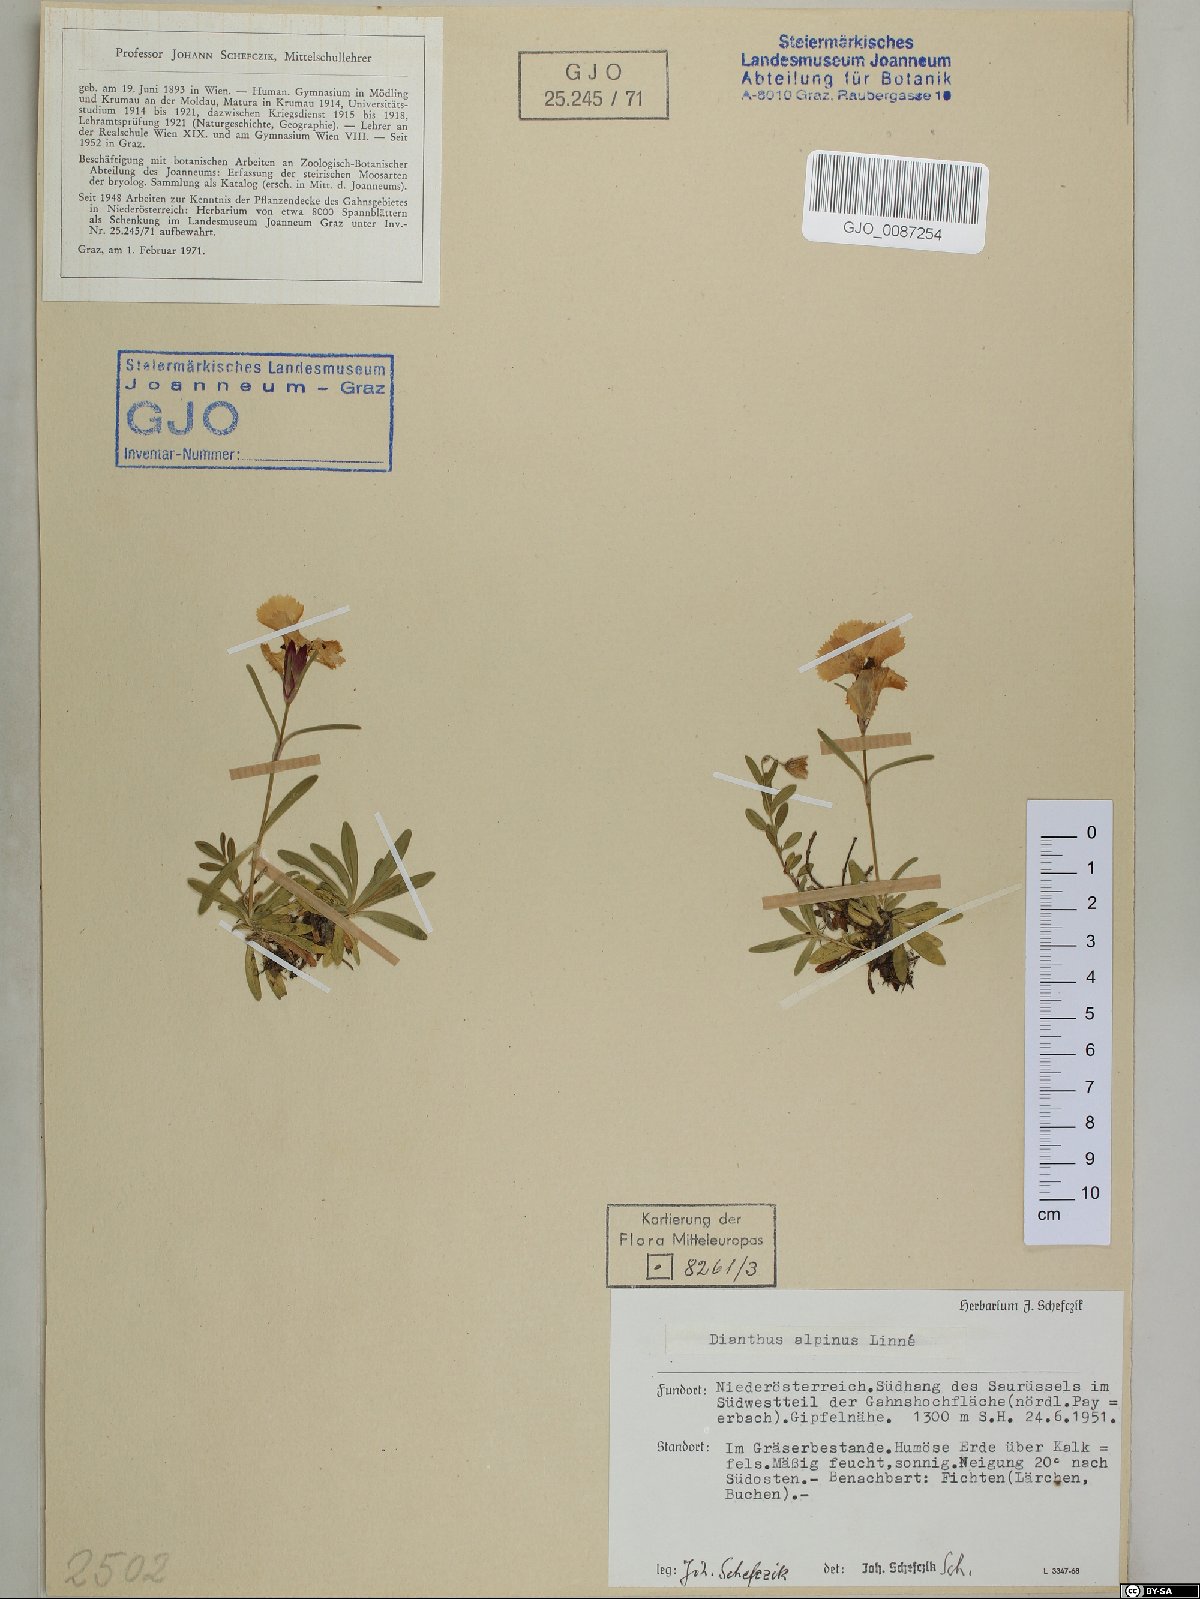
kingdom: Plantae
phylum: Tracheophyta
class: Magnoliopsida
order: Caryophyllales
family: Caryophyllaceae
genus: Dianthus
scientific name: Dianthus alpinus
